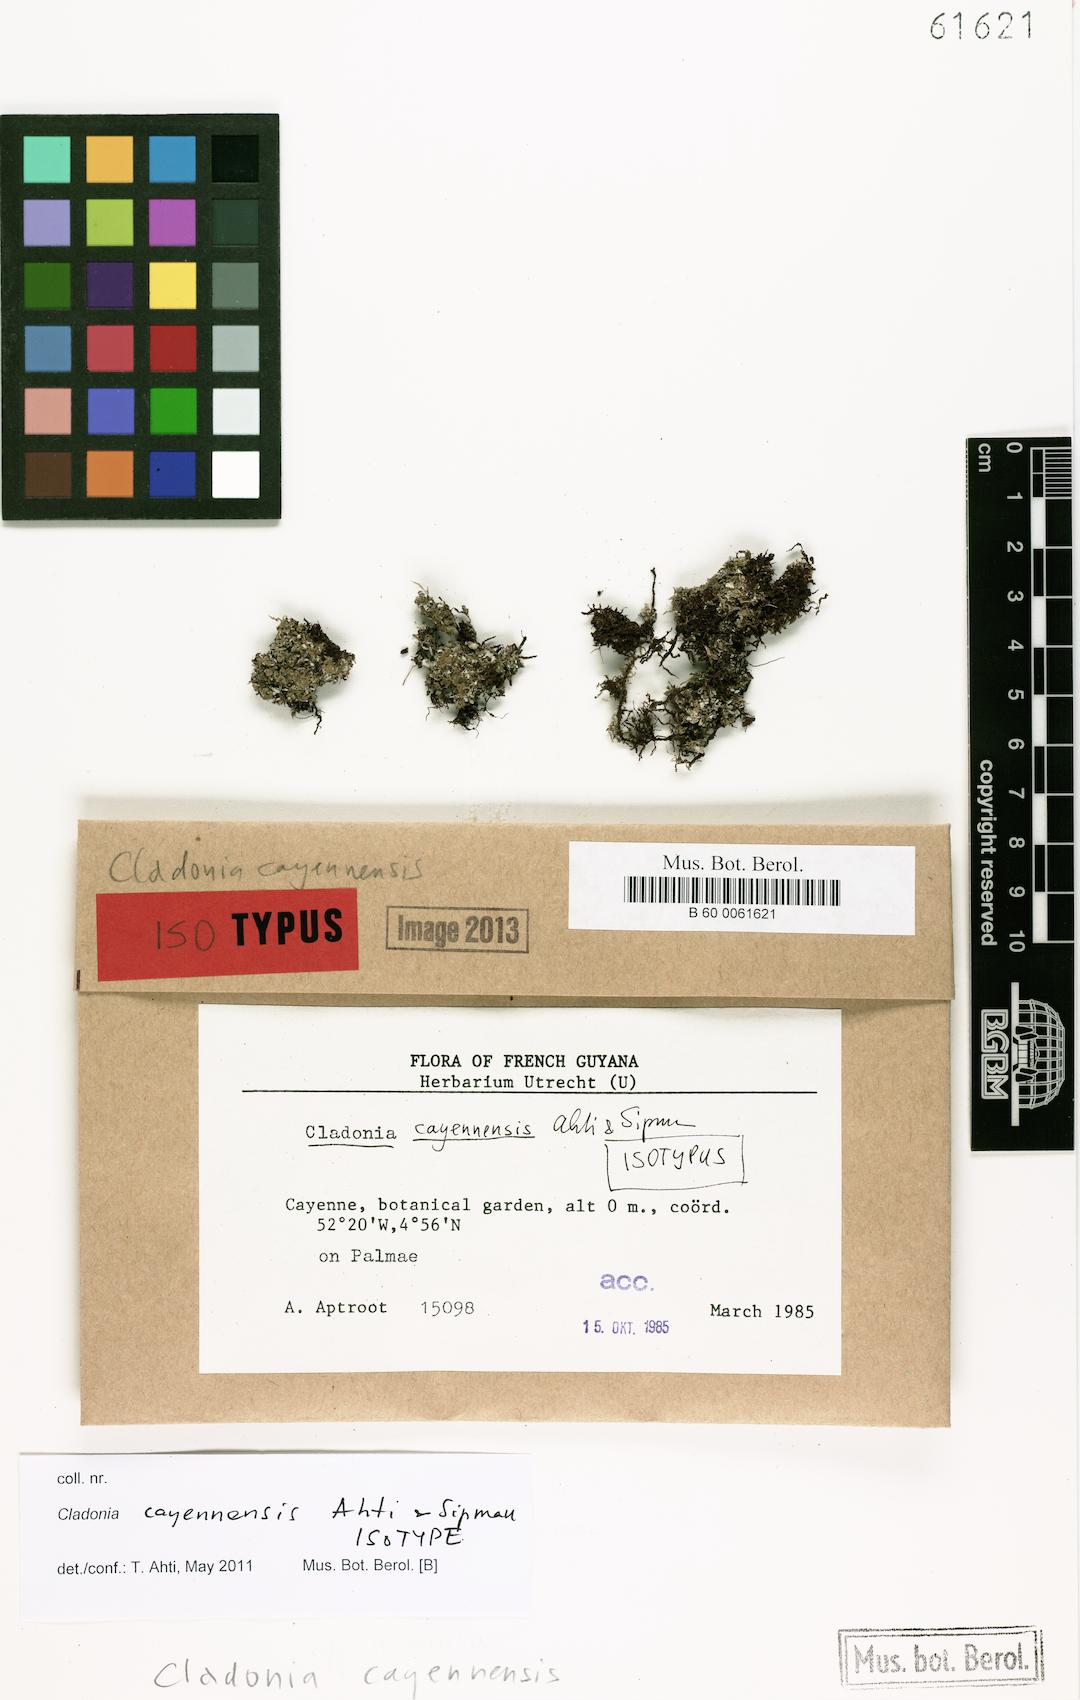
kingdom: Fungi
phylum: Ascomycota
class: Lecanoromycetes
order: Lecanorales
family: Cladoniaceae
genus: Cladonia
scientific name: Cladonia cayennensis
